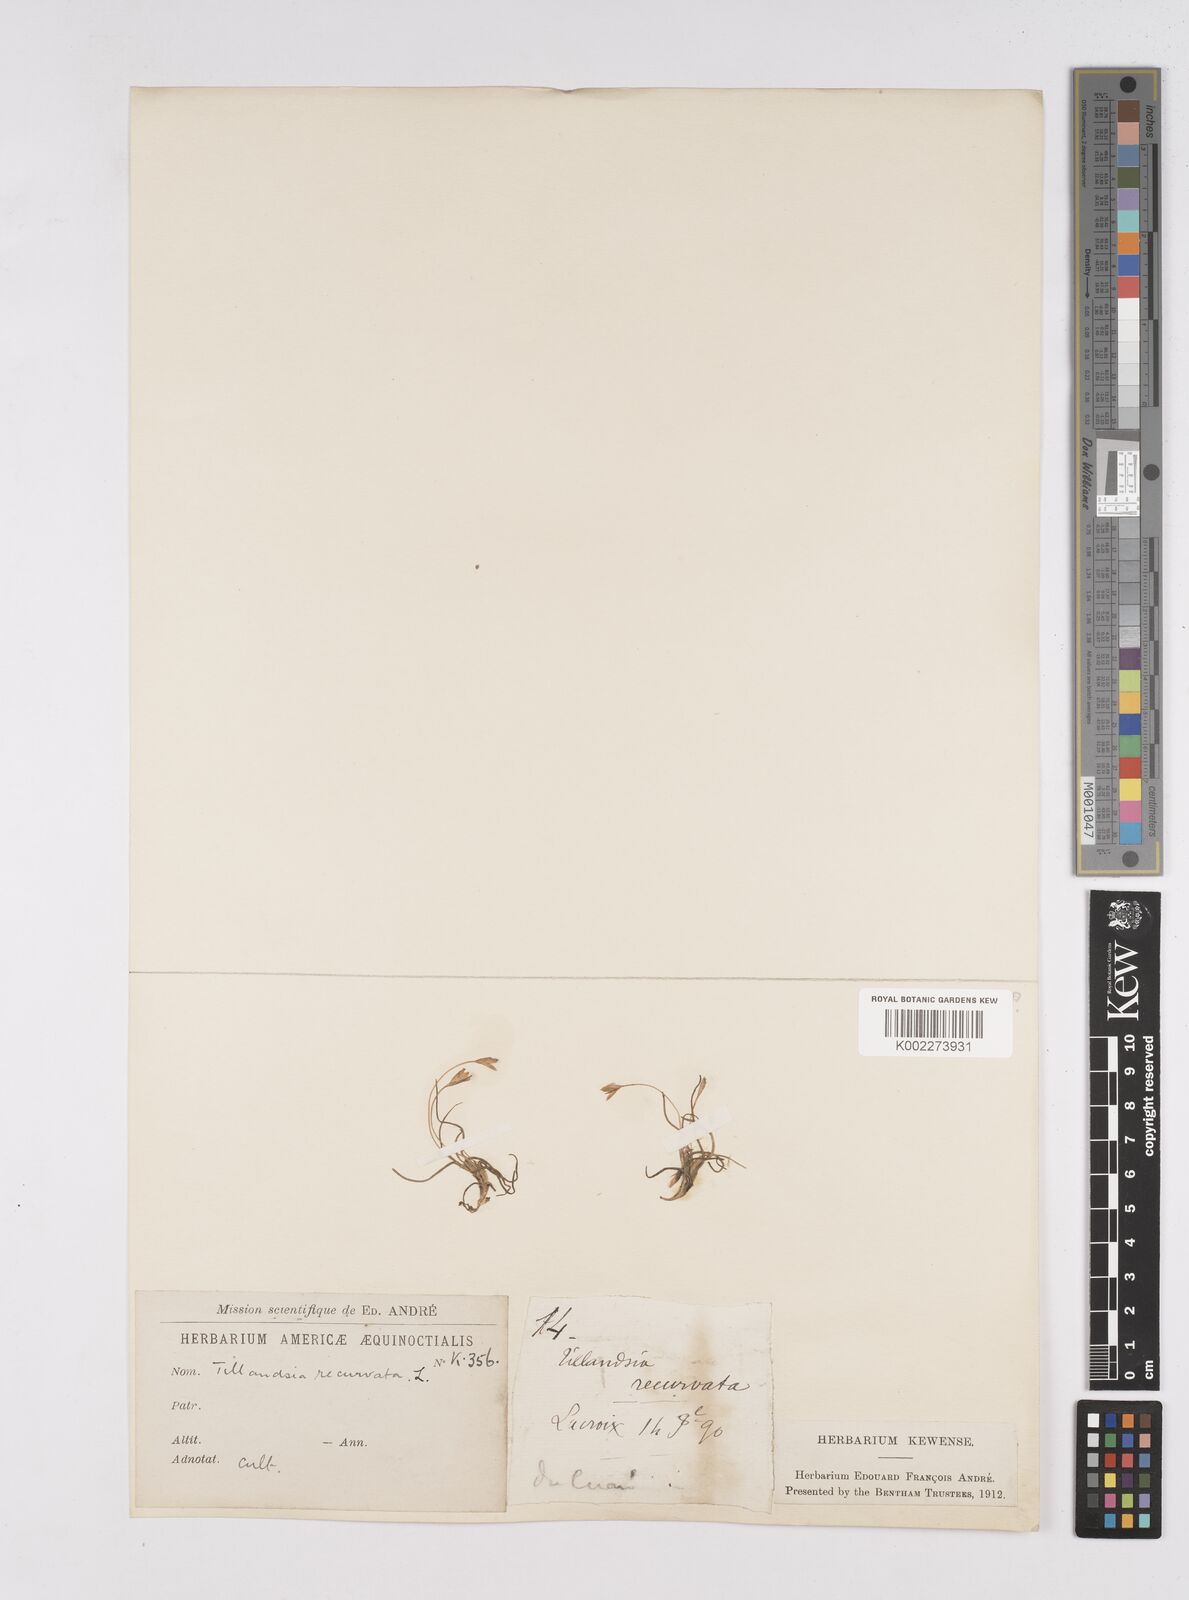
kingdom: Plantae
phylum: Tracheophyta
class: Liliopsida
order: Poales
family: Bromeliaceae
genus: Tillandsia
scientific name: Tillandsia recurvata
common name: Small ballmoss
